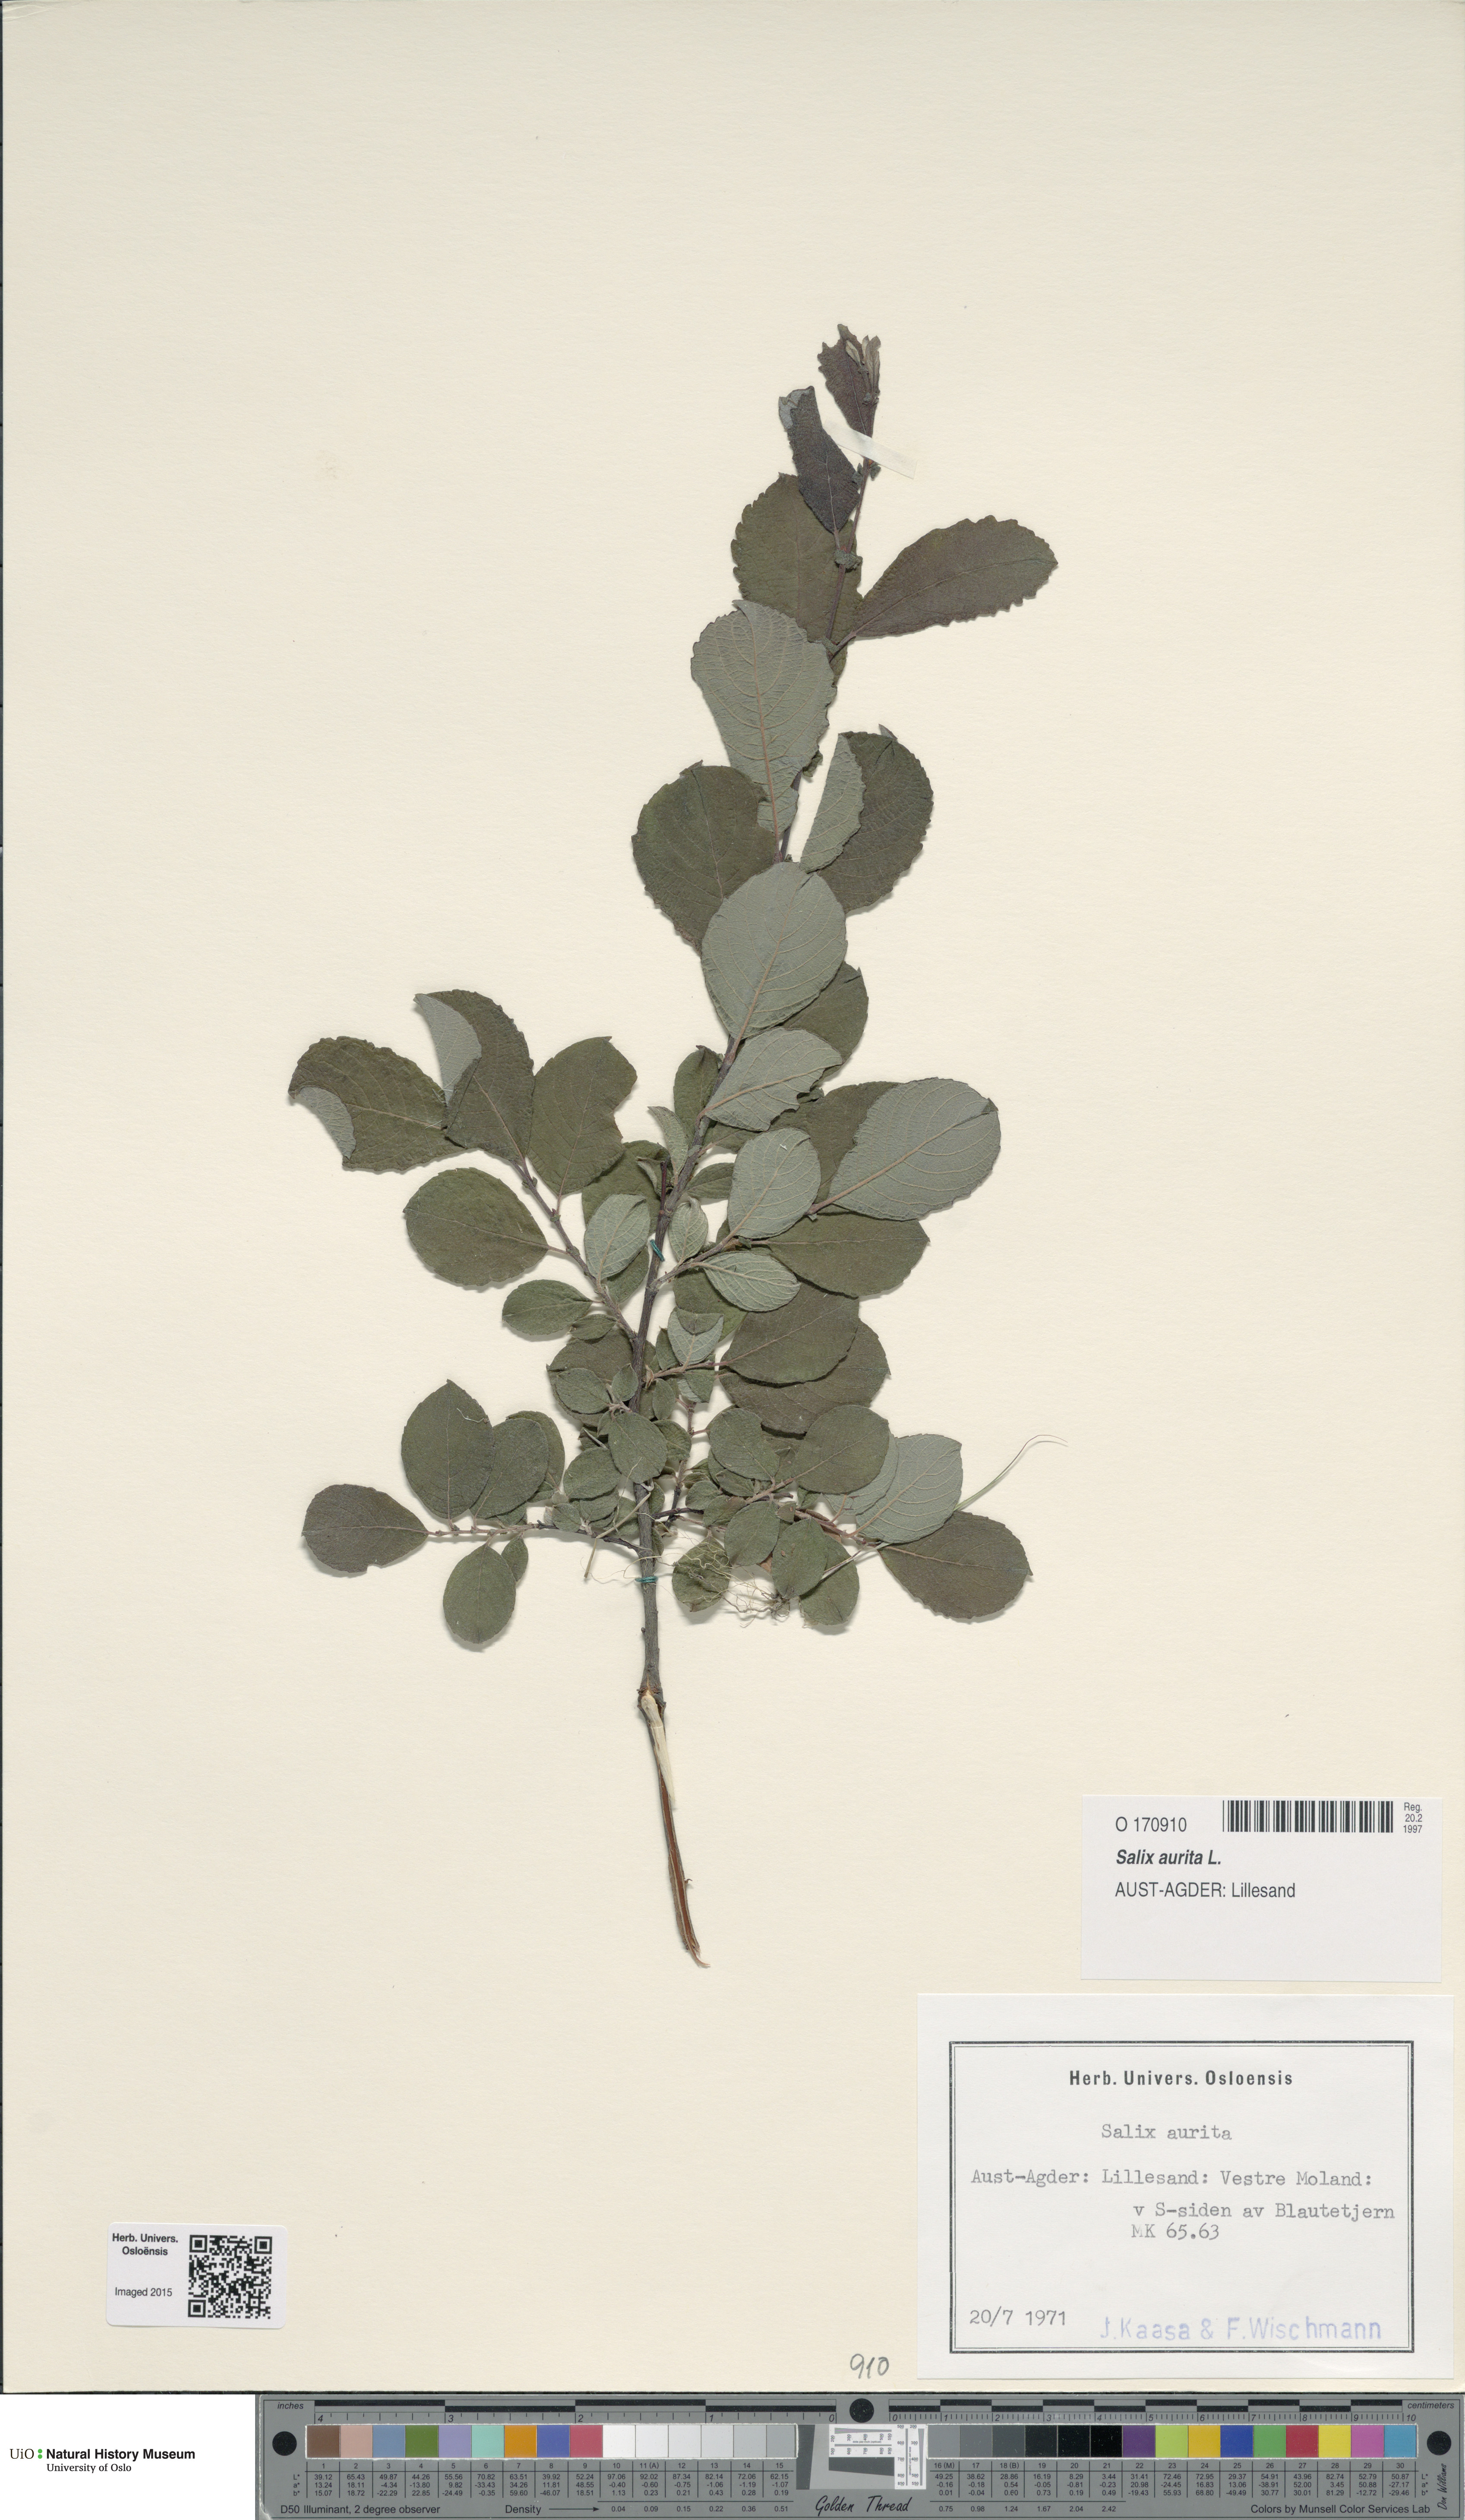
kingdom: Plantae
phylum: Tracheophyta
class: Magnoliopsida
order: Malpighiales
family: Salicaceae
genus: Salix
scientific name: Salix aurita
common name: Eared willow
